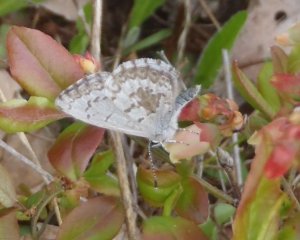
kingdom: Animalia
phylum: Arthropoda
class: Insecta
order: Lepidoptera
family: Lycaenidae
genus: Celastrina
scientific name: Celastrina ladon
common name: Spring Azure
